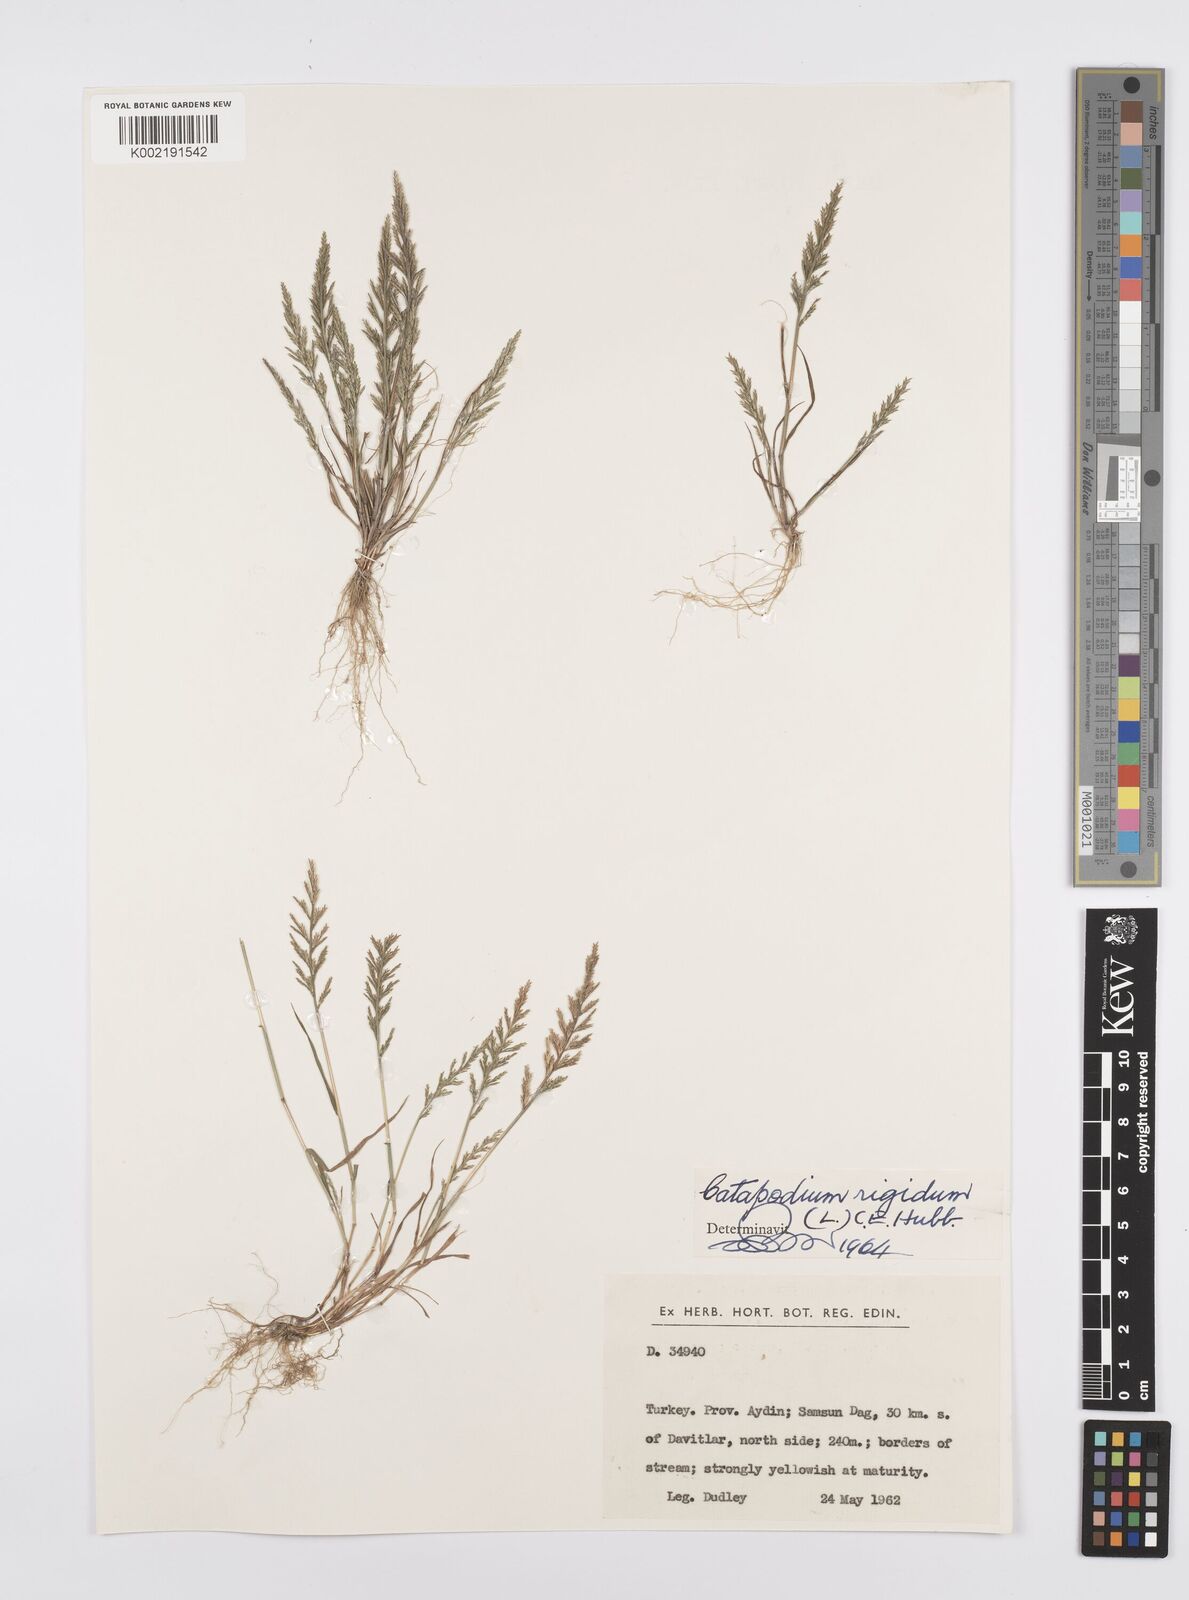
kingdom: Plantae
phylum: Tracheophyta
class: Liliopsida
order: Poales
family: Poaceae
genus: Catapodium
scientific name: Catapodium rigidum
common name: Fern-grass
